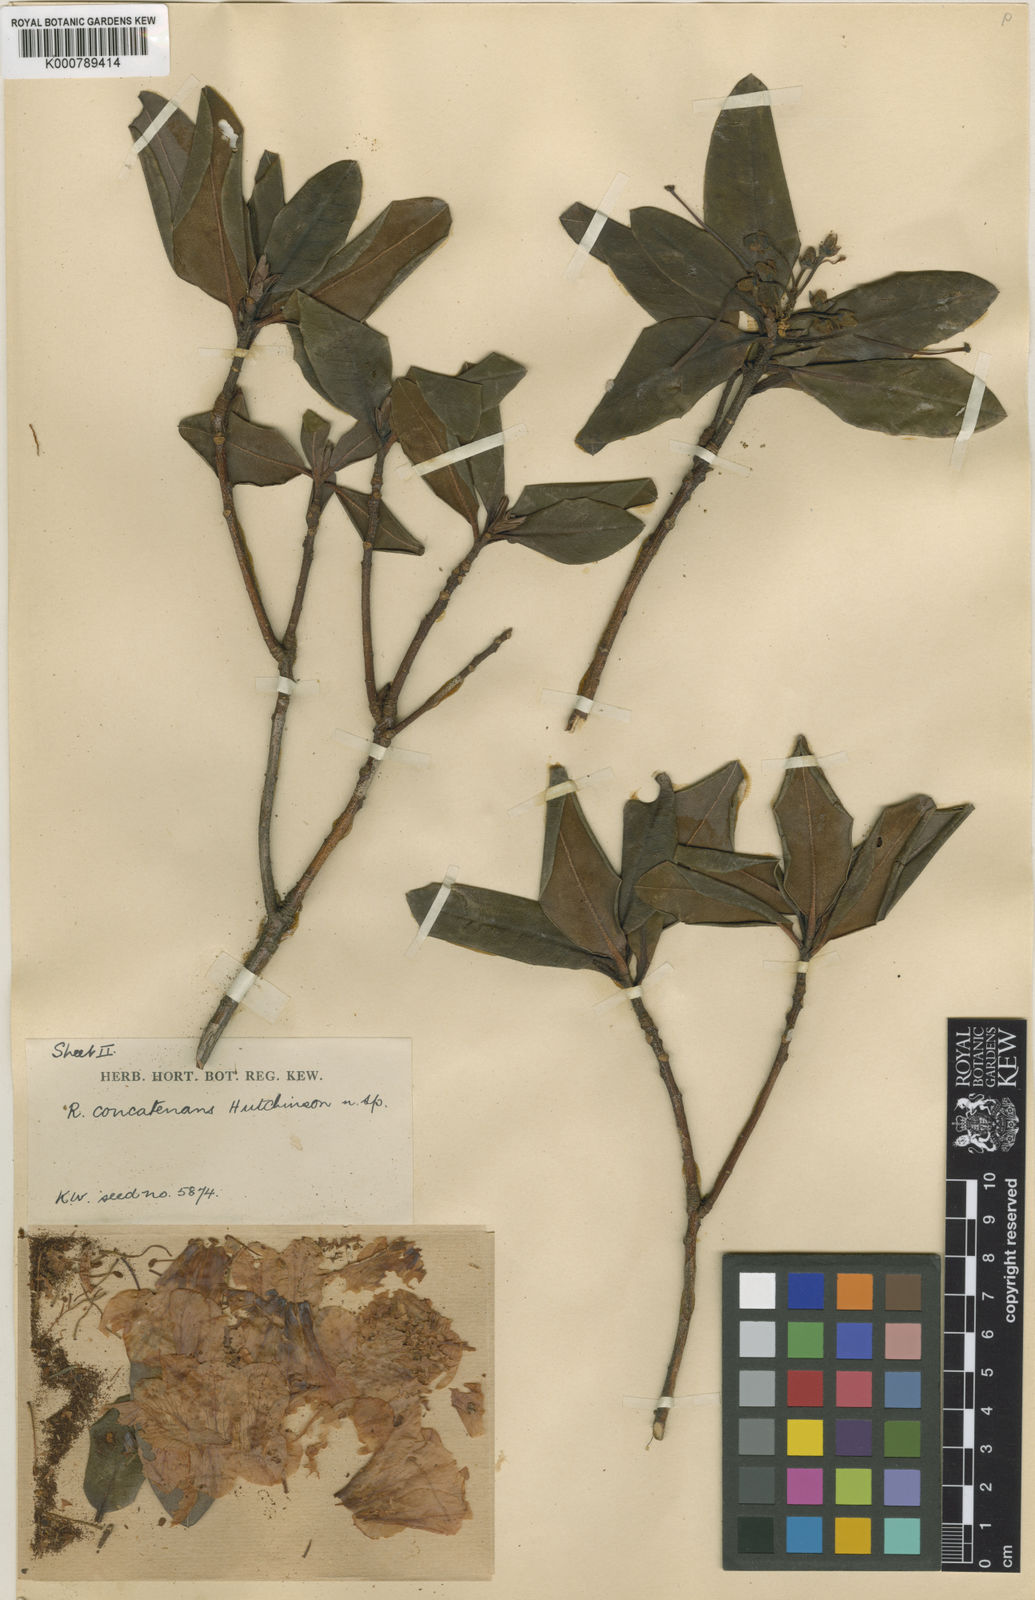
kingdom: Plantae
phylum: Tracheophyta
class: Magnoliopsida
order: Ericales
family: Ericaceae
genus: Rhododendron
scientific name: Rhododendron cinnabarinum
